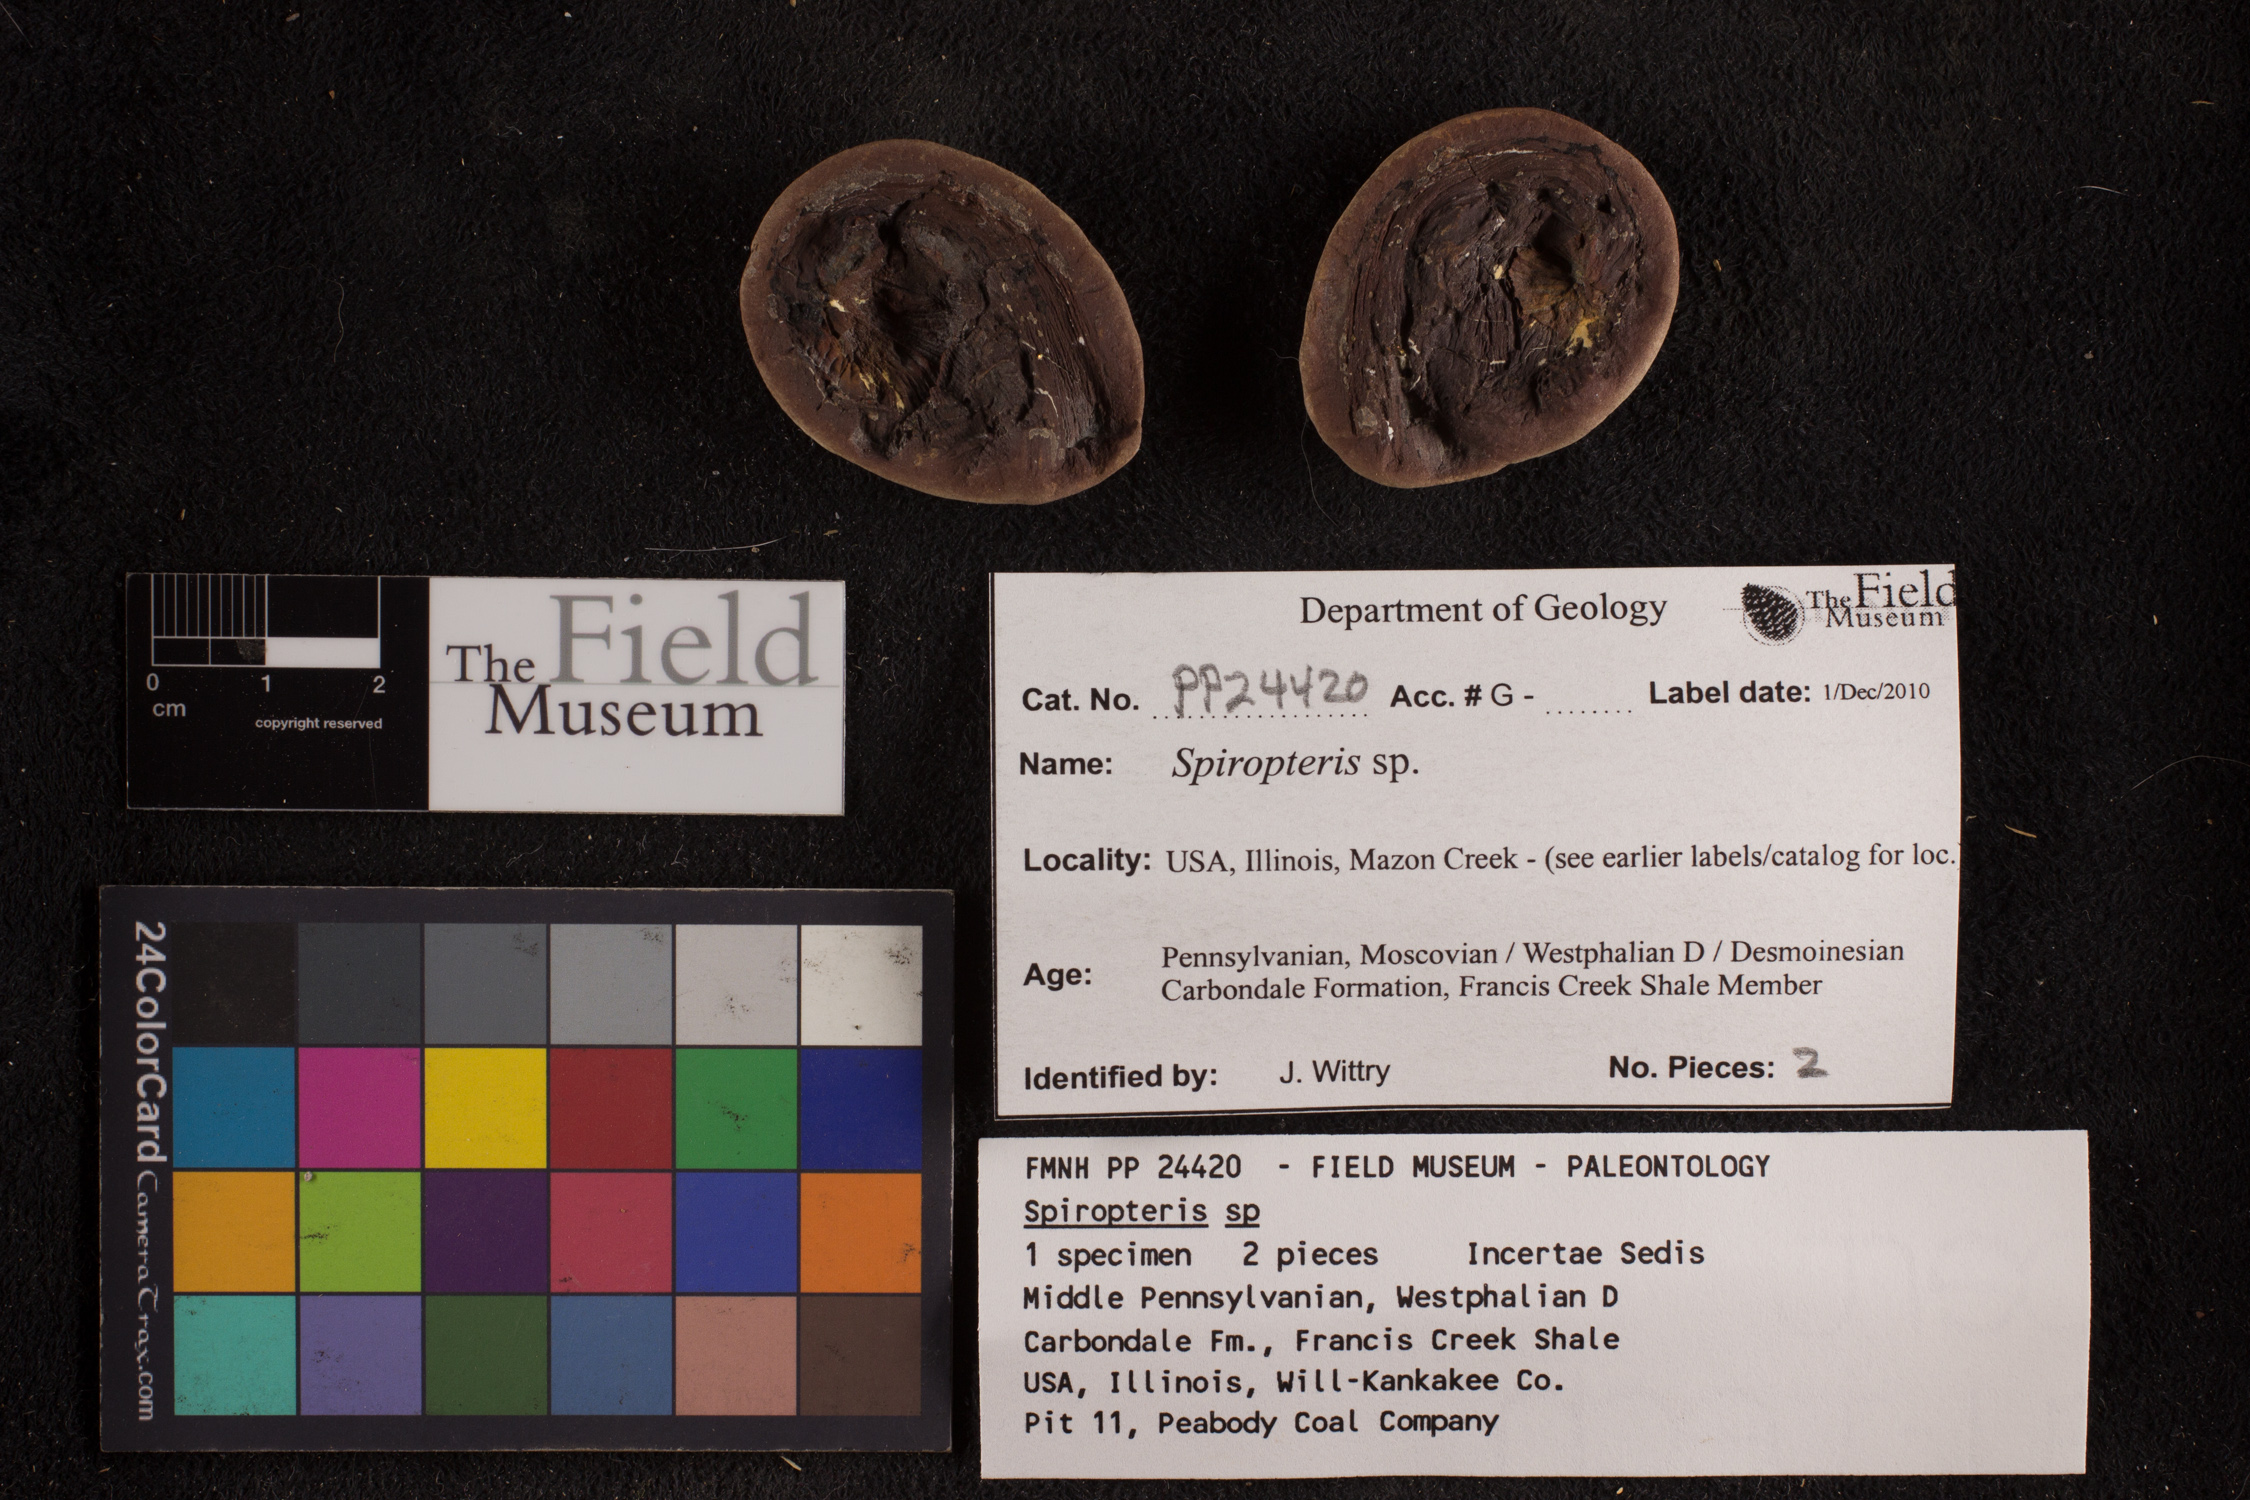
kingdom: Plantae
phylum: Tracheophyta
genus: Spiropteris
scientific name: Spiropteris
